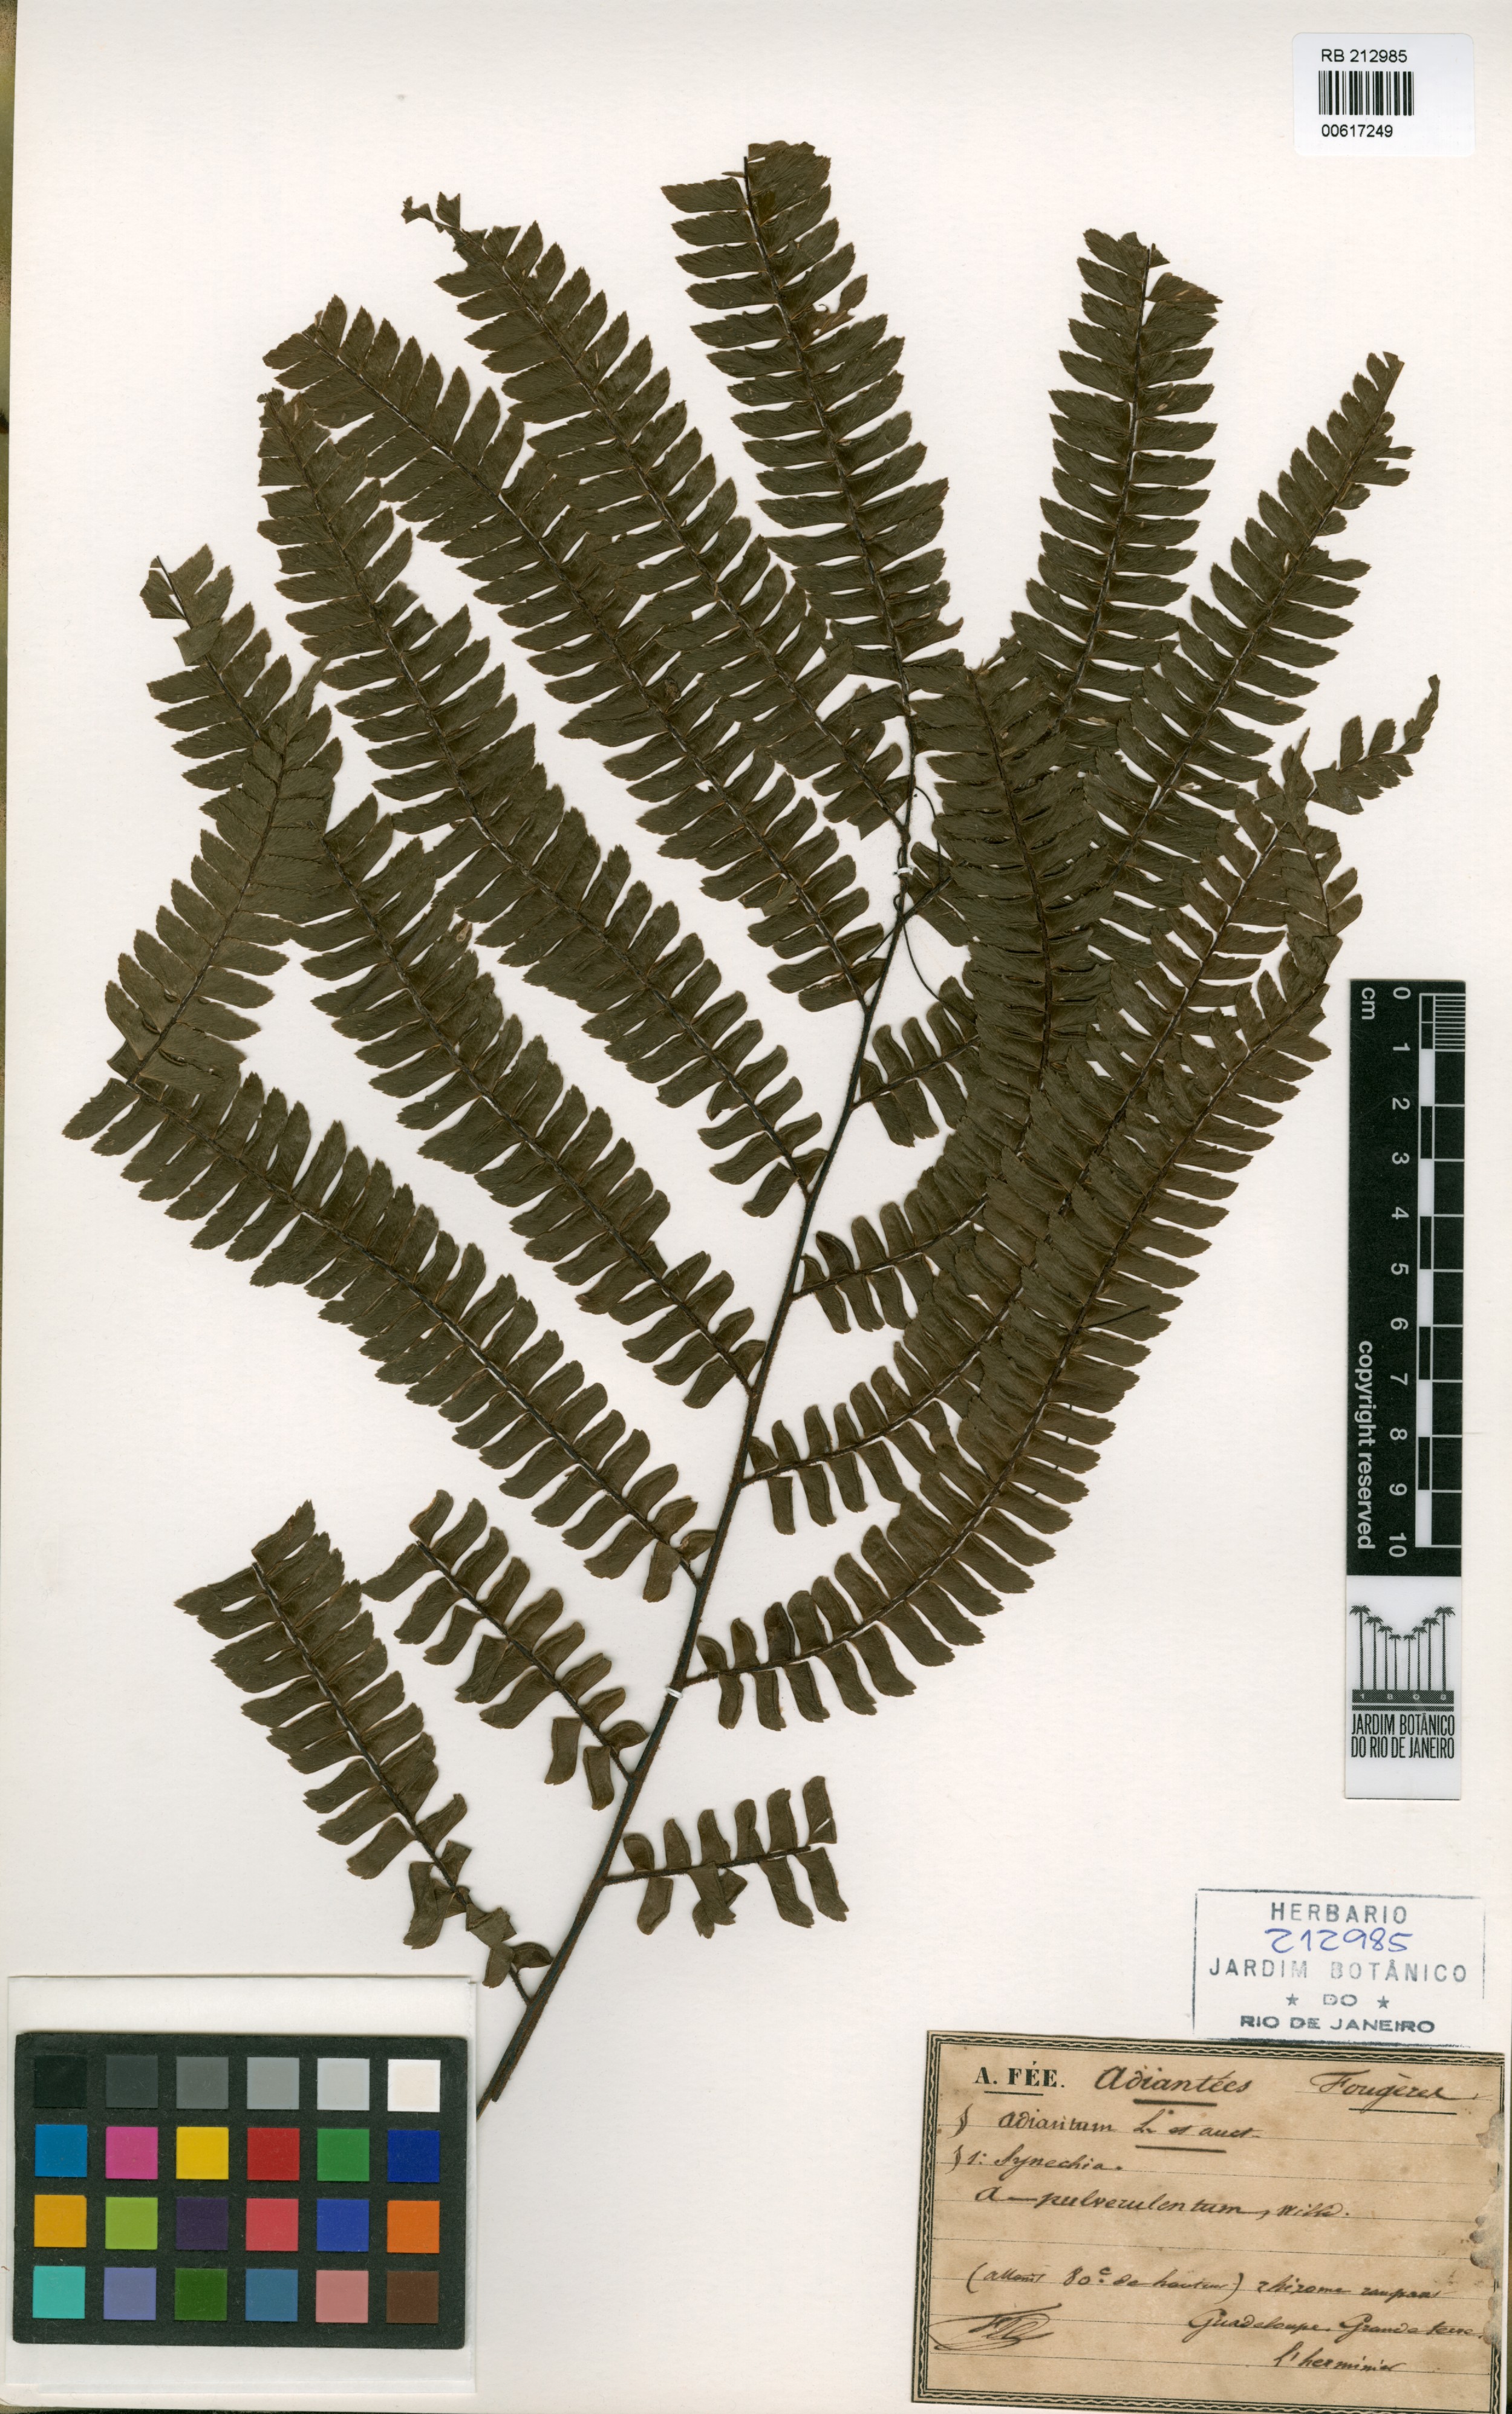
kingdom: Plantae
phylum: Tracheophyta
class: Polypodiopsida
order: Polypodiales
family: Pteridaceae
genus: Adiantum
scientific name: Adiantum pulverulentum
